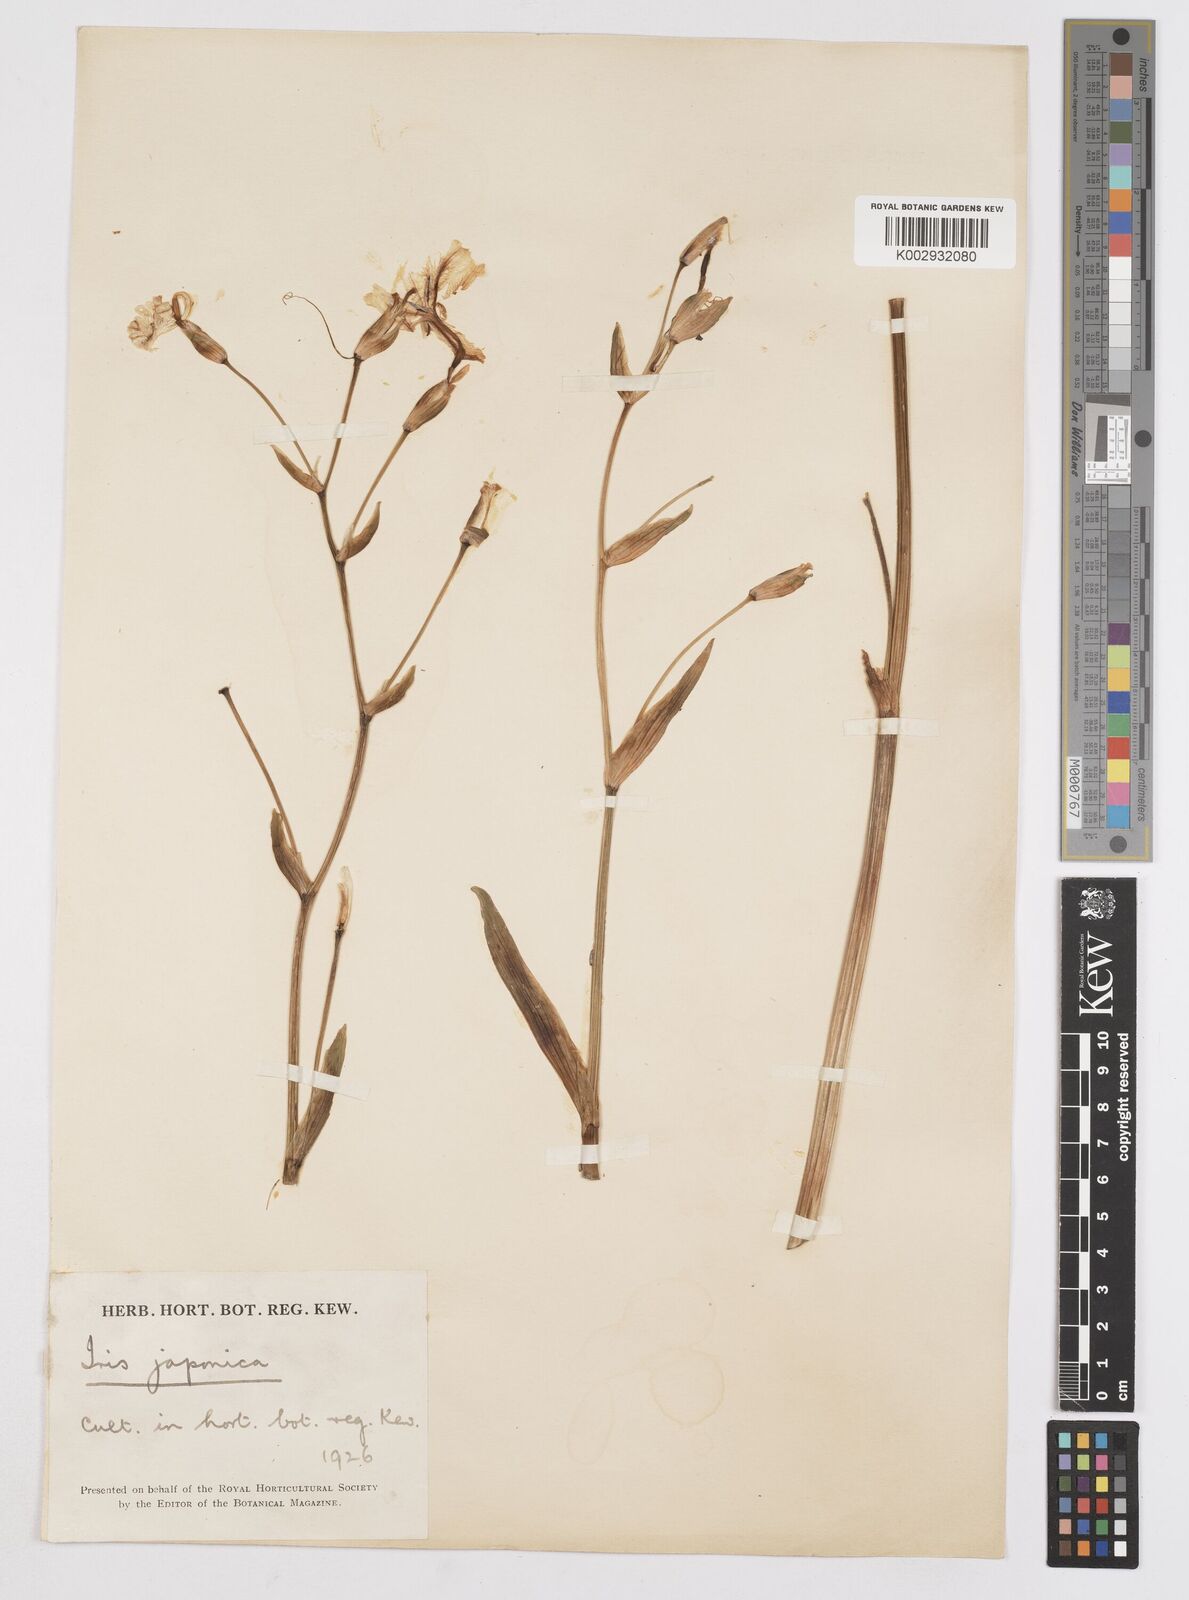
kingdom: Plantae
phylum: Tracheophyta
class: Liliopsida
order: Asparagales
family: Iridaceae
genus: Iris
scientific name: Iris japonica
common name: Butterfly-flower
